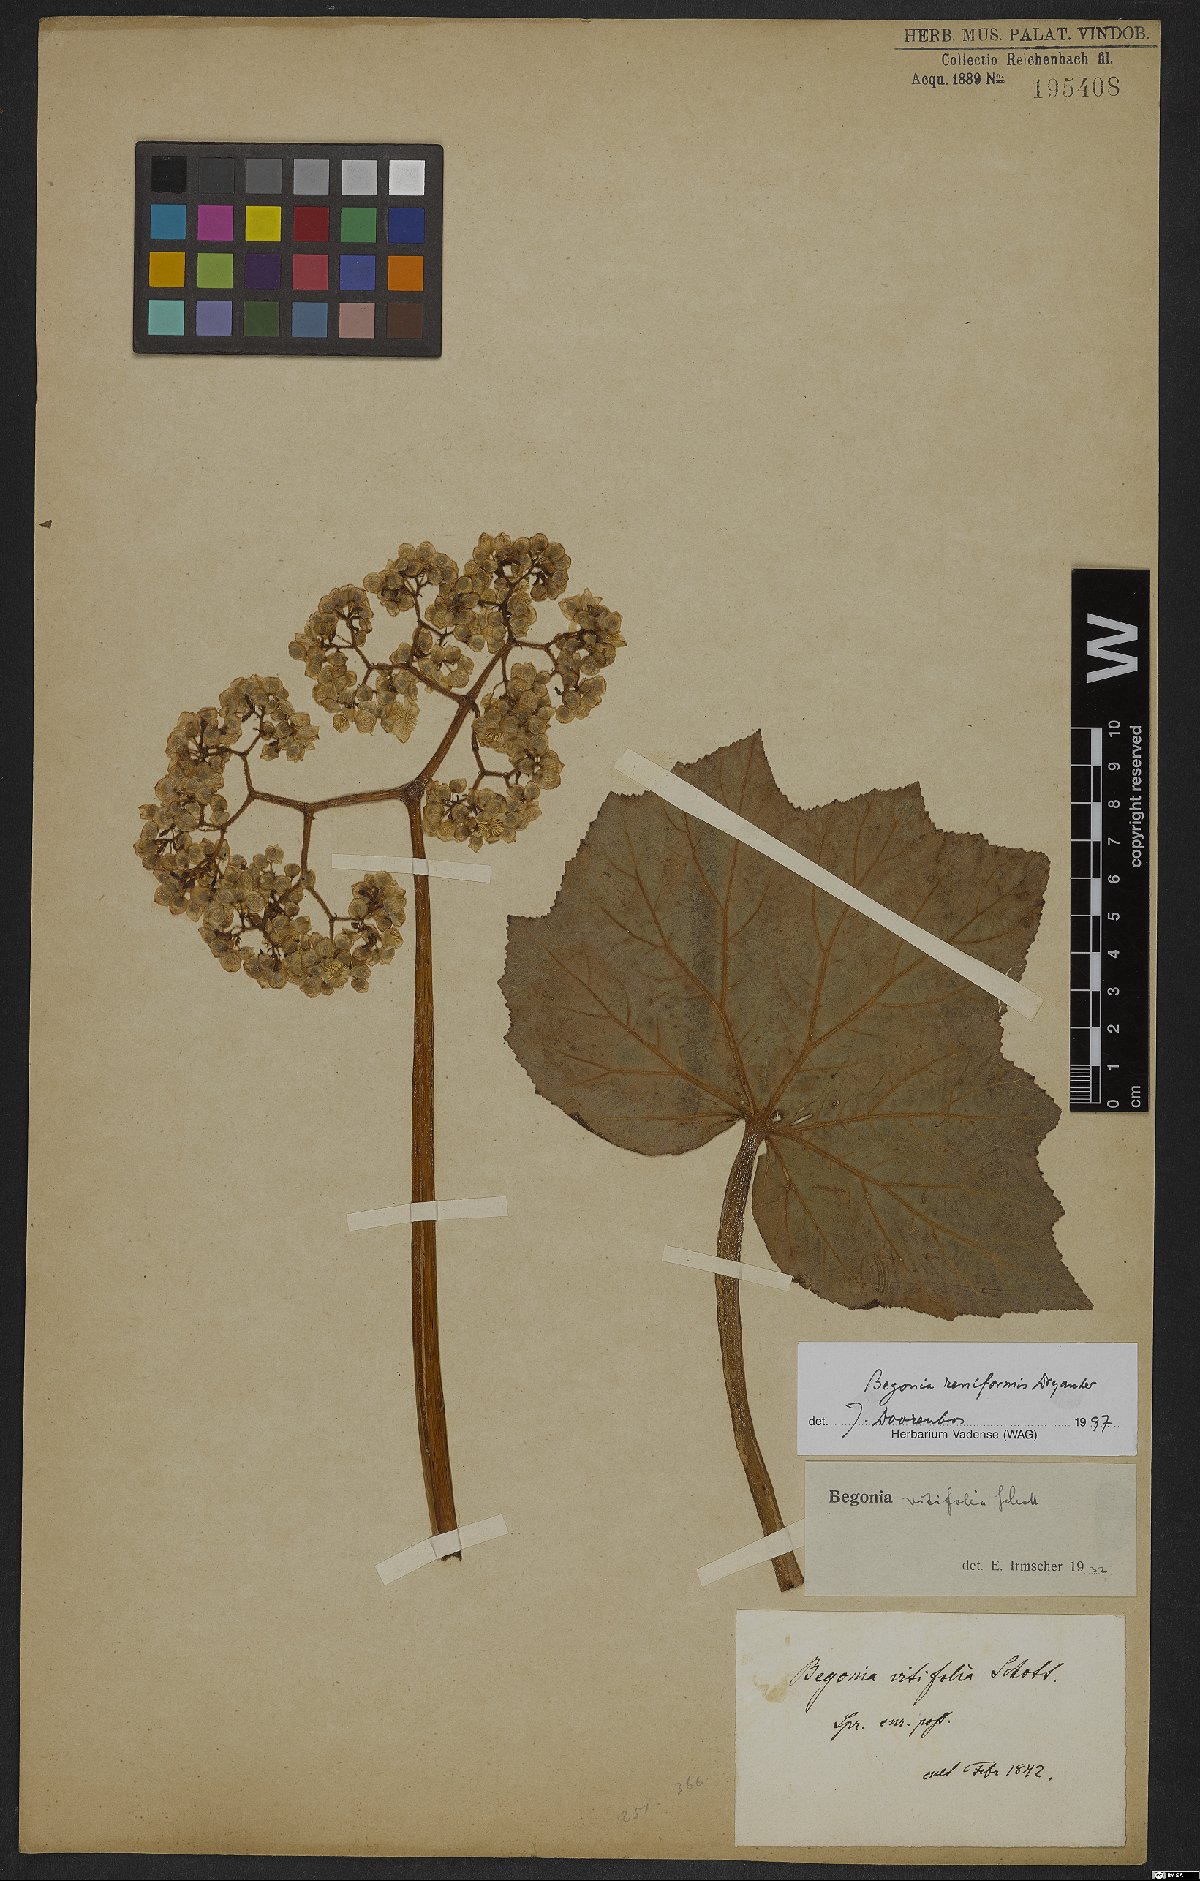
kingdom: Plantae
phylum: Tracheophyta
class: Magnoliopsida
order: Cucurbitales
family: Begoniaceae
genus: Begonia
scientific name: Begonia reniformis
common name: Grapeleaf begonia
